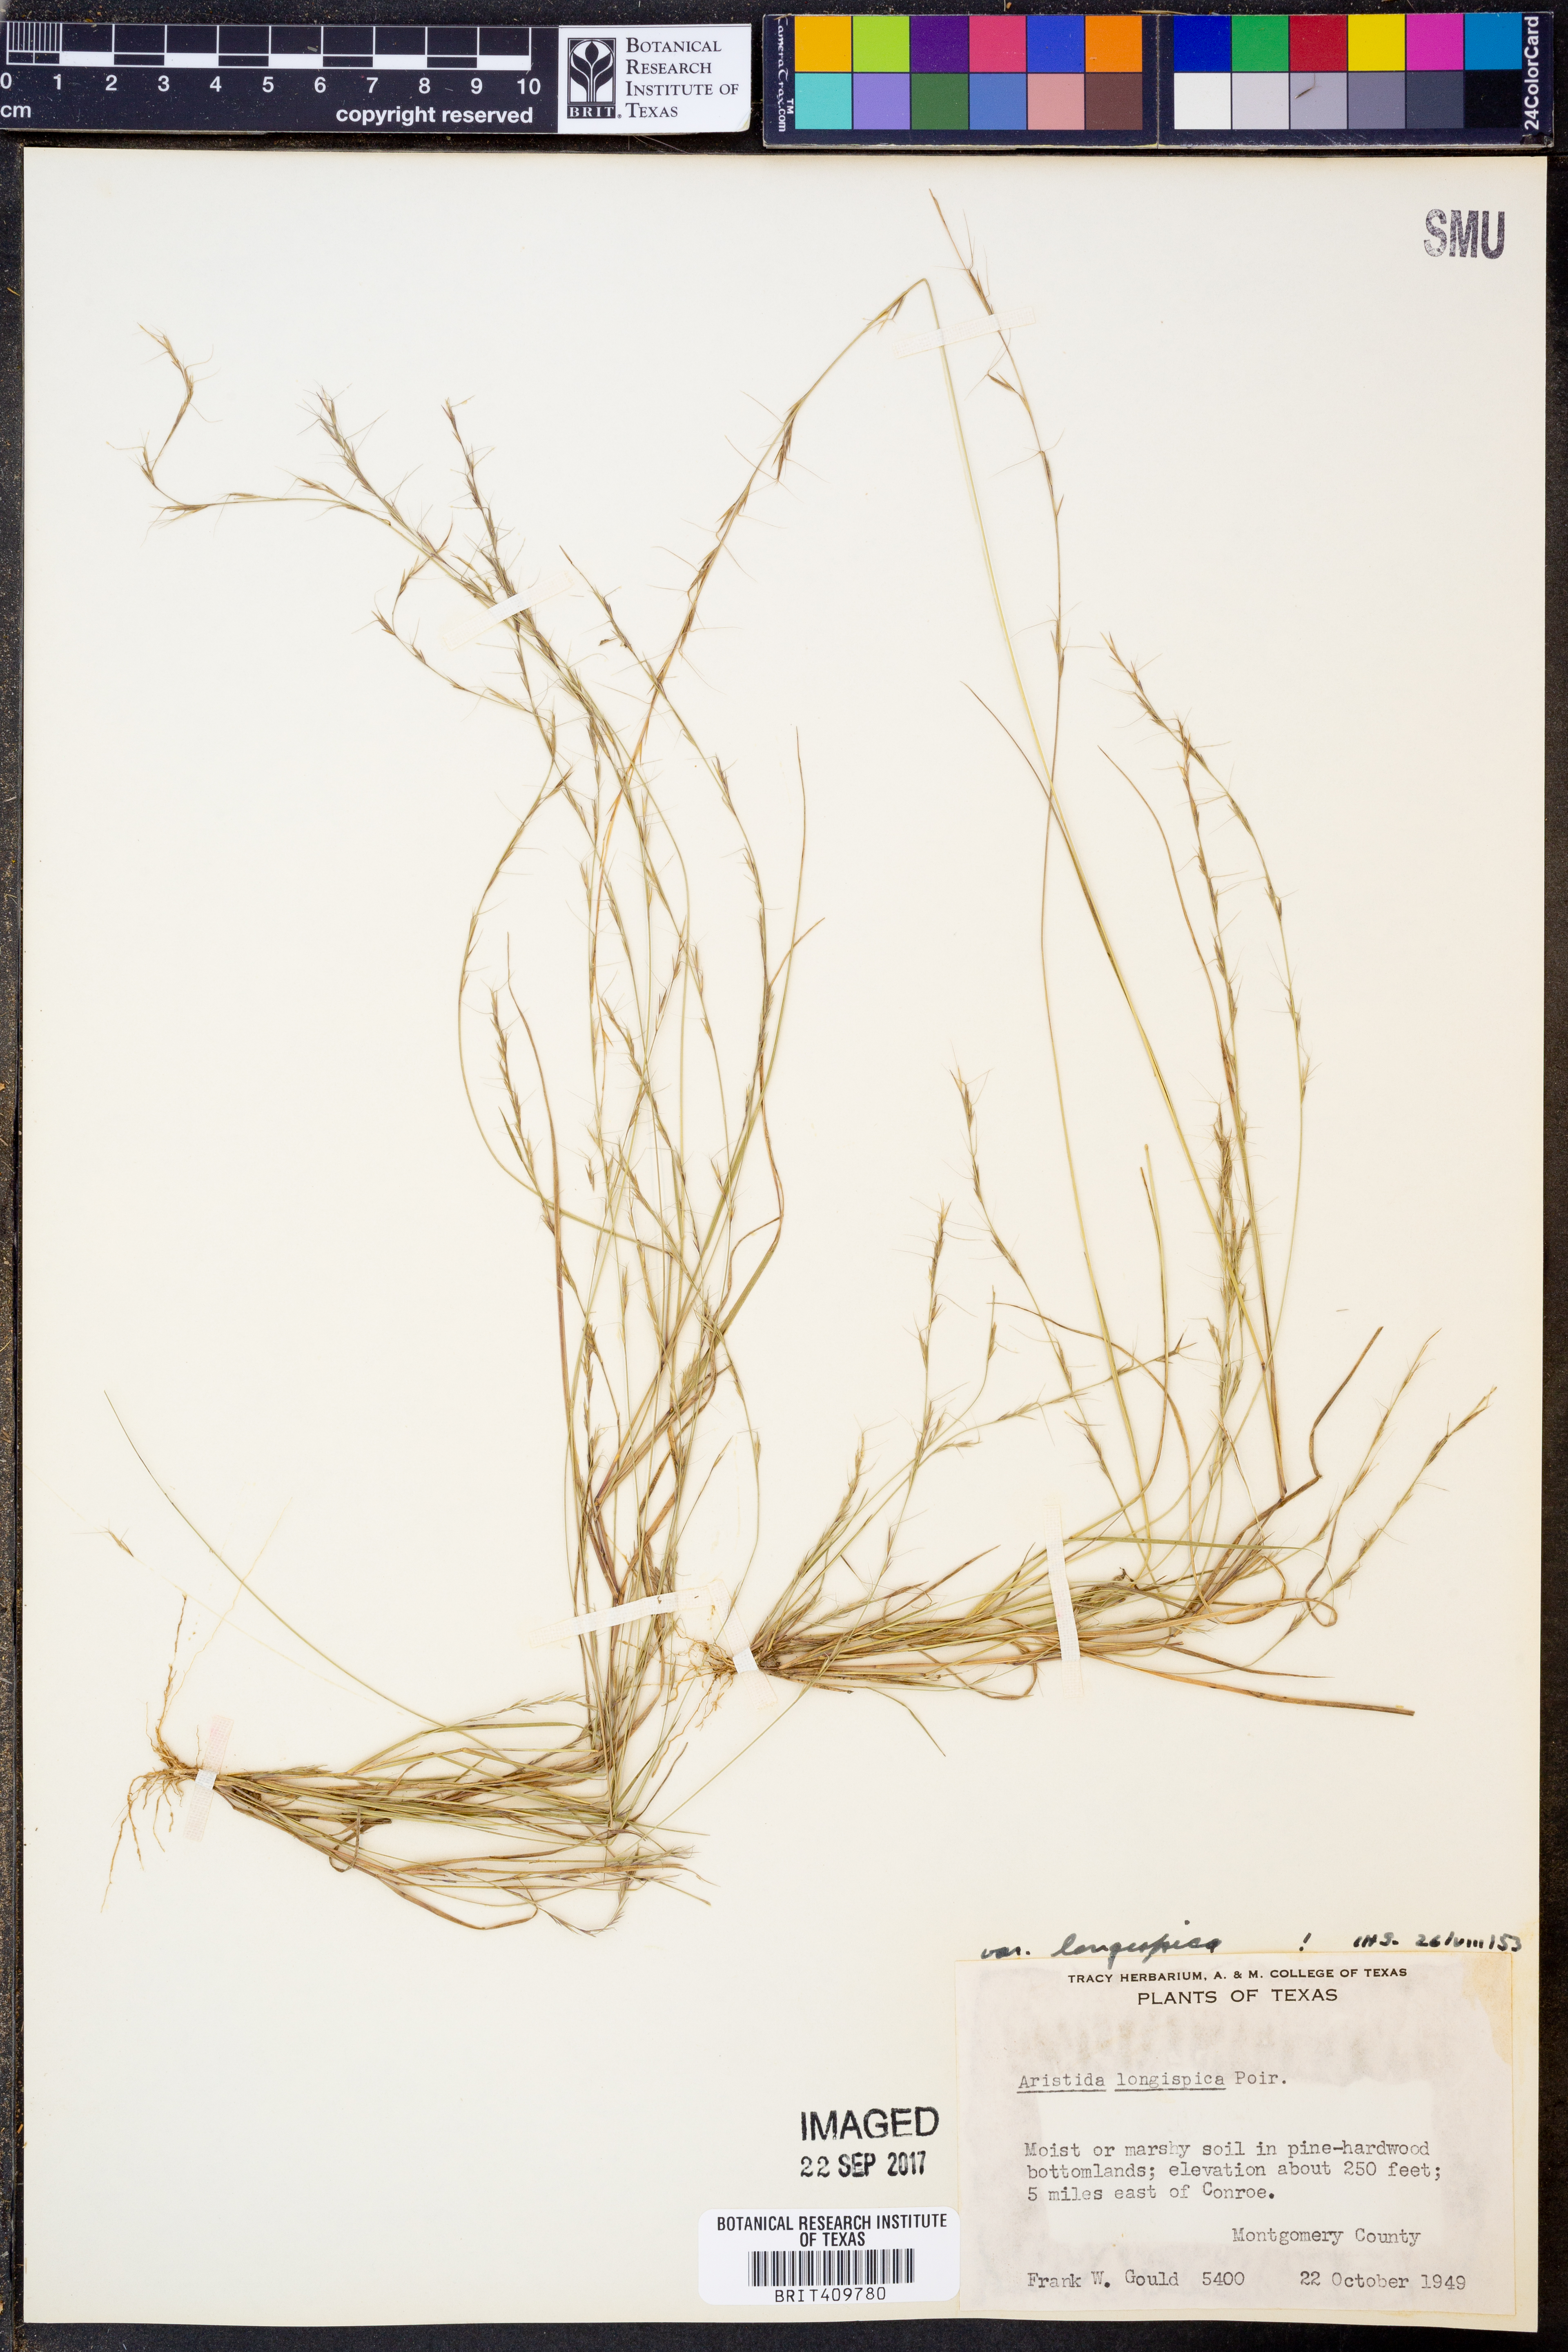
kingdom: Plantae
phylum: Tracheophyta
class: Liliopsida
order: Poales
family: Poaceae
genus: Aristida
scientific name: Aristida longespica
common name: Long-spiked triple-awned grass
